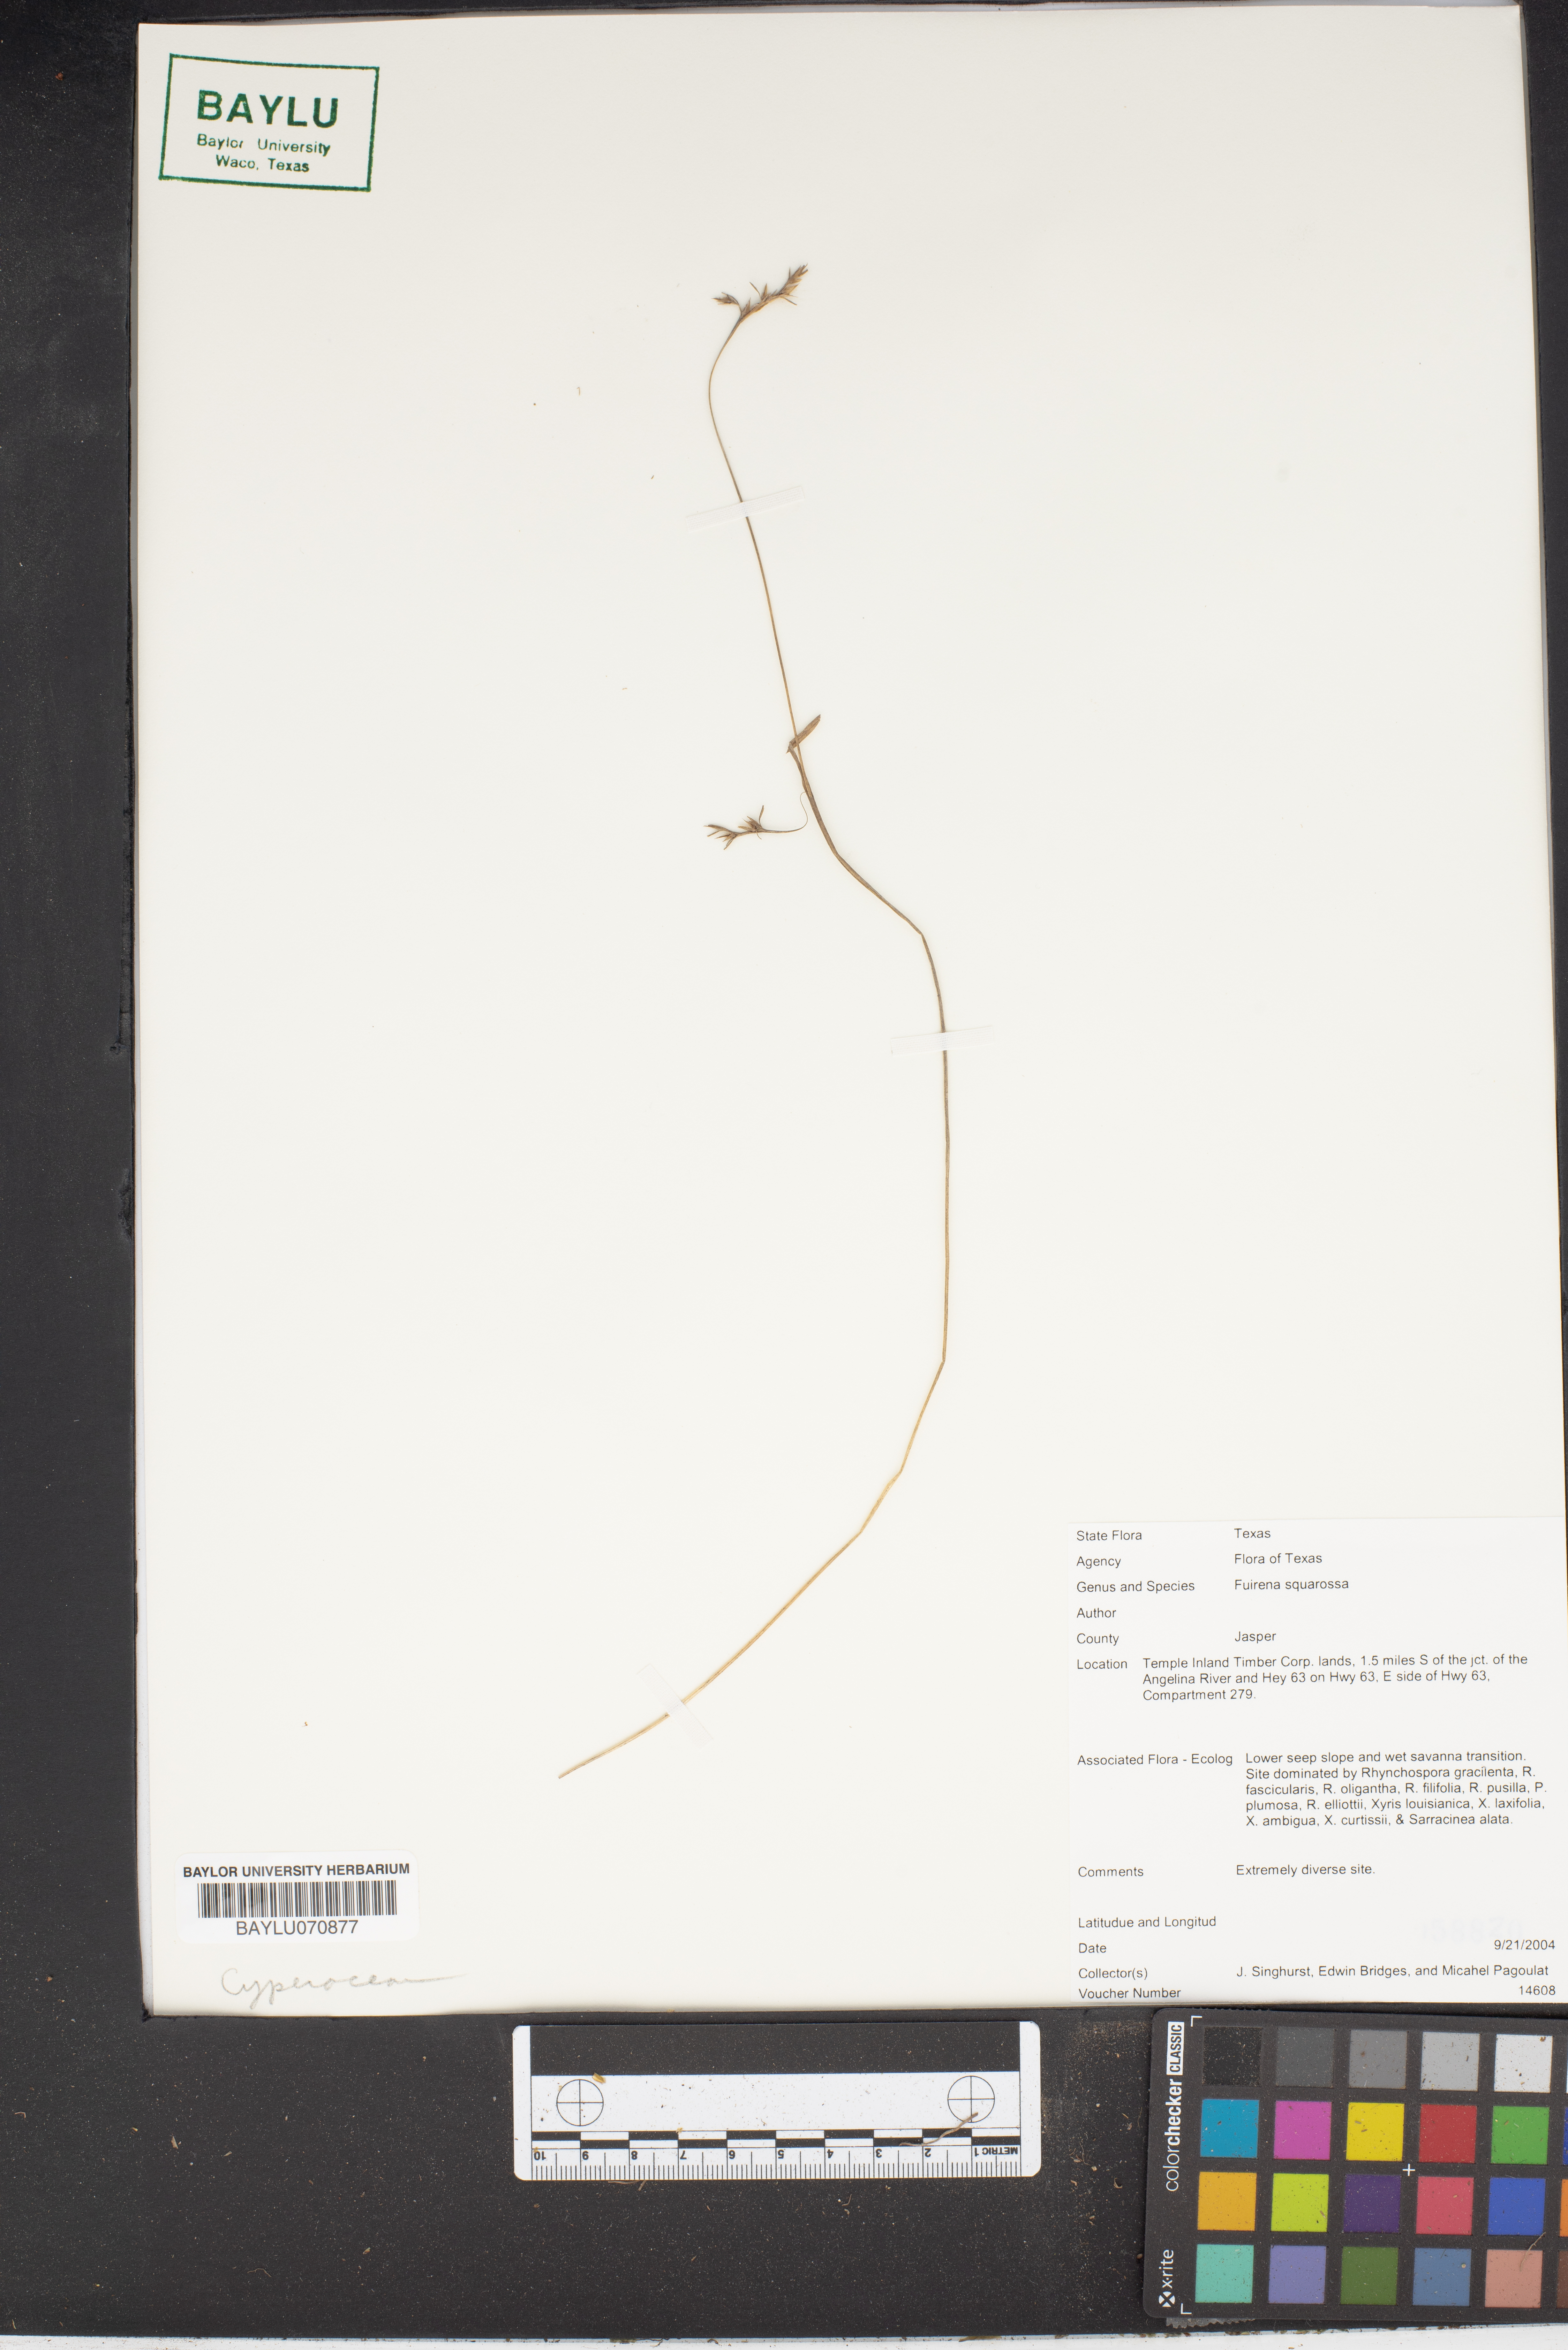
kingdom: Plantae
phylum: Tracheophyta
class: Liliopsida
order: Poales
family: Cyperaceae
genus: Fuirena
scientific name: Fuirena squarrosa
